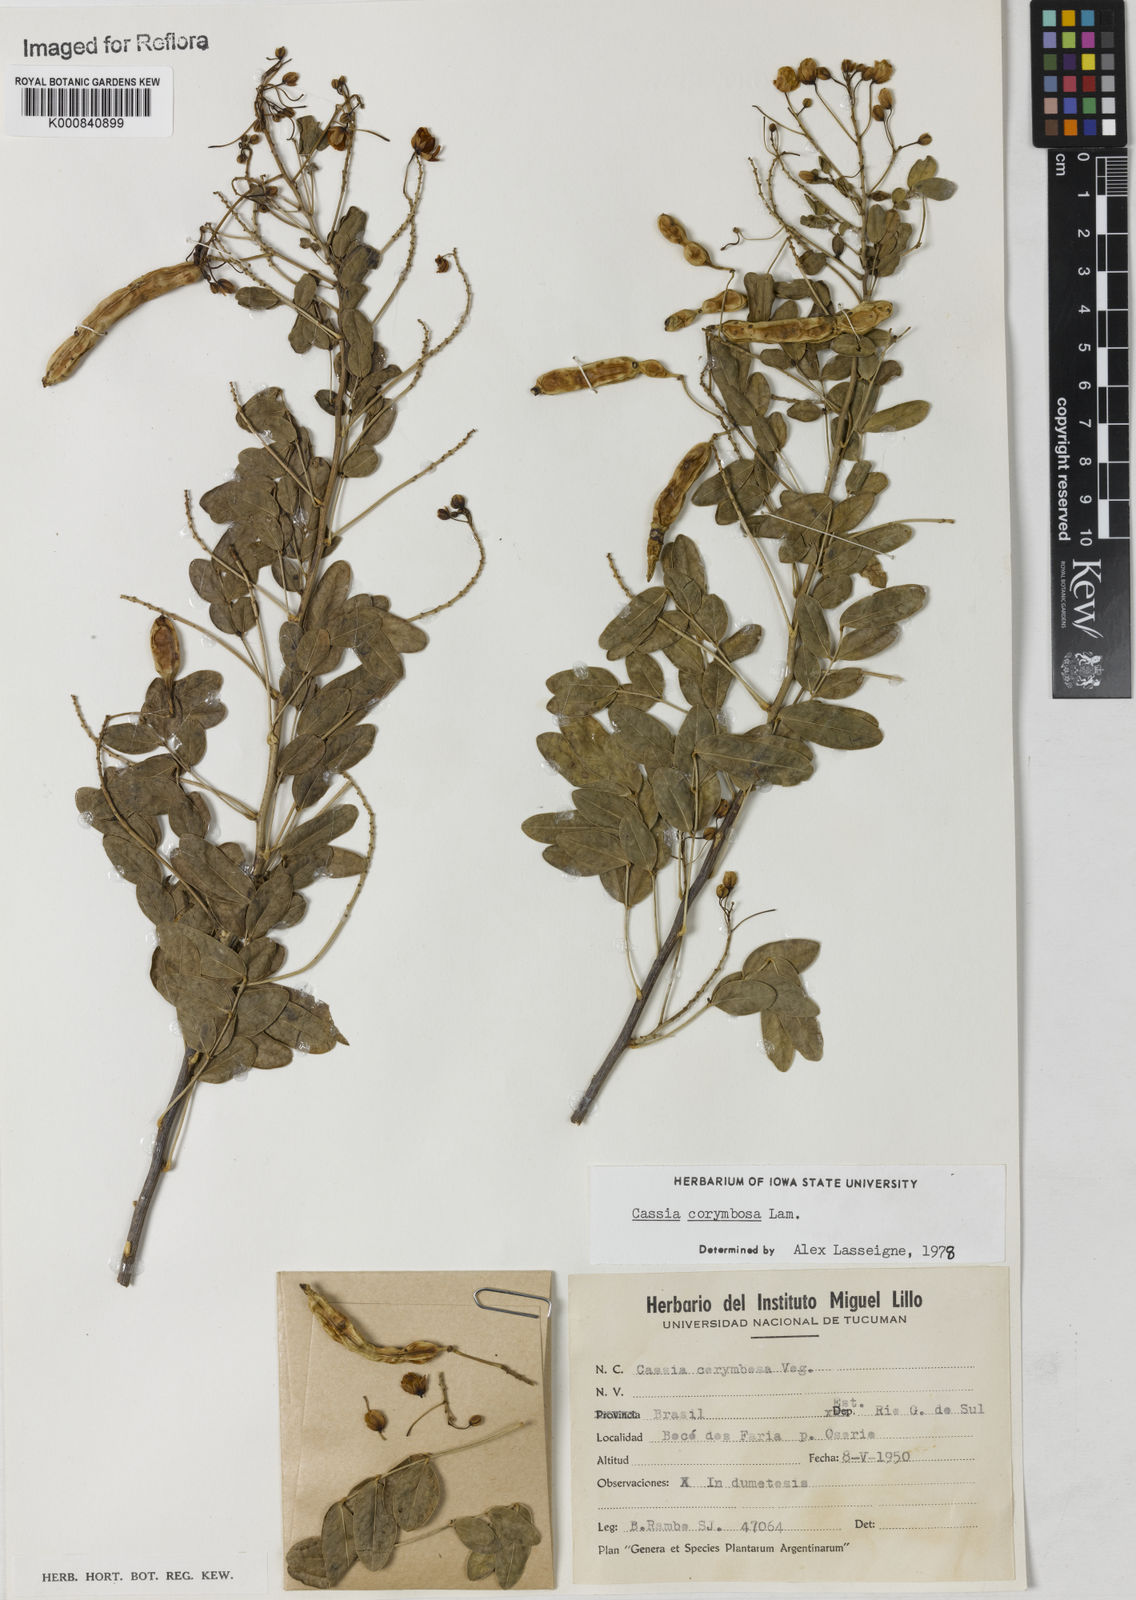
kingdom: Plantae
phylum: Tracheophyta
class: Magnoliopsida
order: Fabales
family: Fabaceae
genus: Senna
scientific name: Senna corymbosa
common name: Argentine senna
